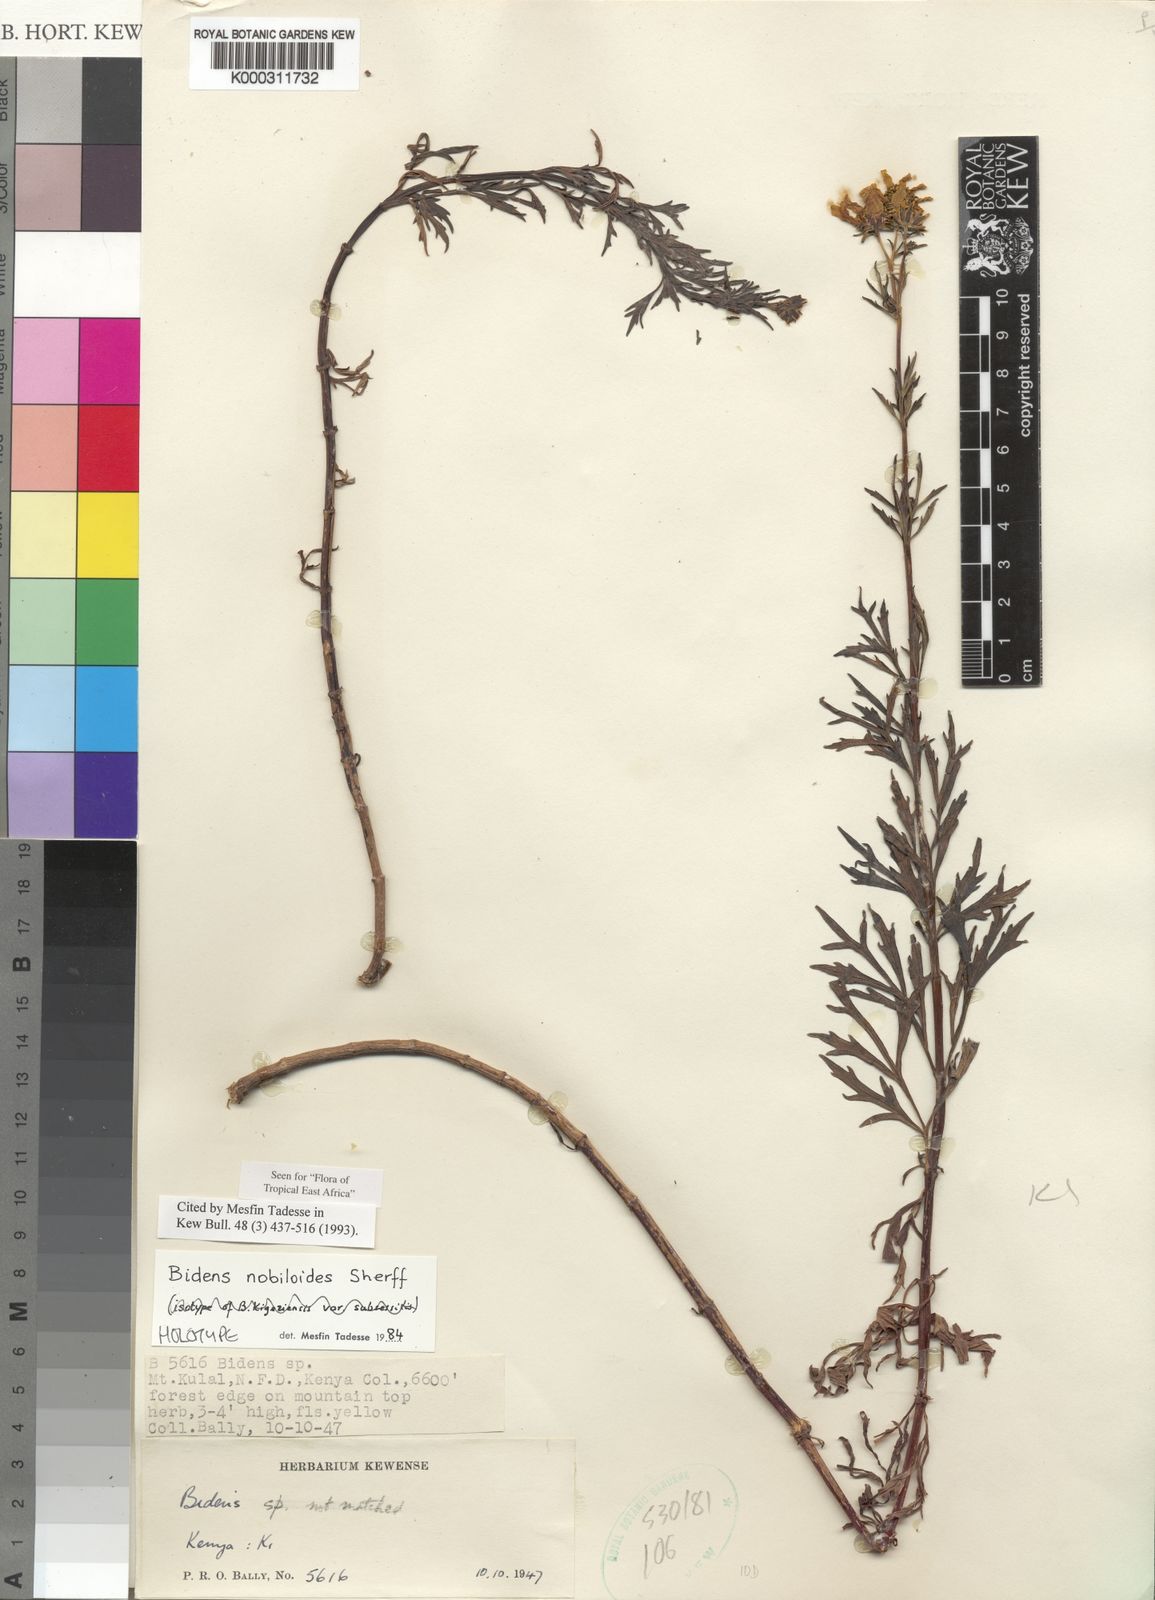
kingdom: Plantae
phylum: Tracheophyta
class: Magnoliopsida
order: Asterales
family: Asteraceae
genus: Bidens
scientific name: Bidens
